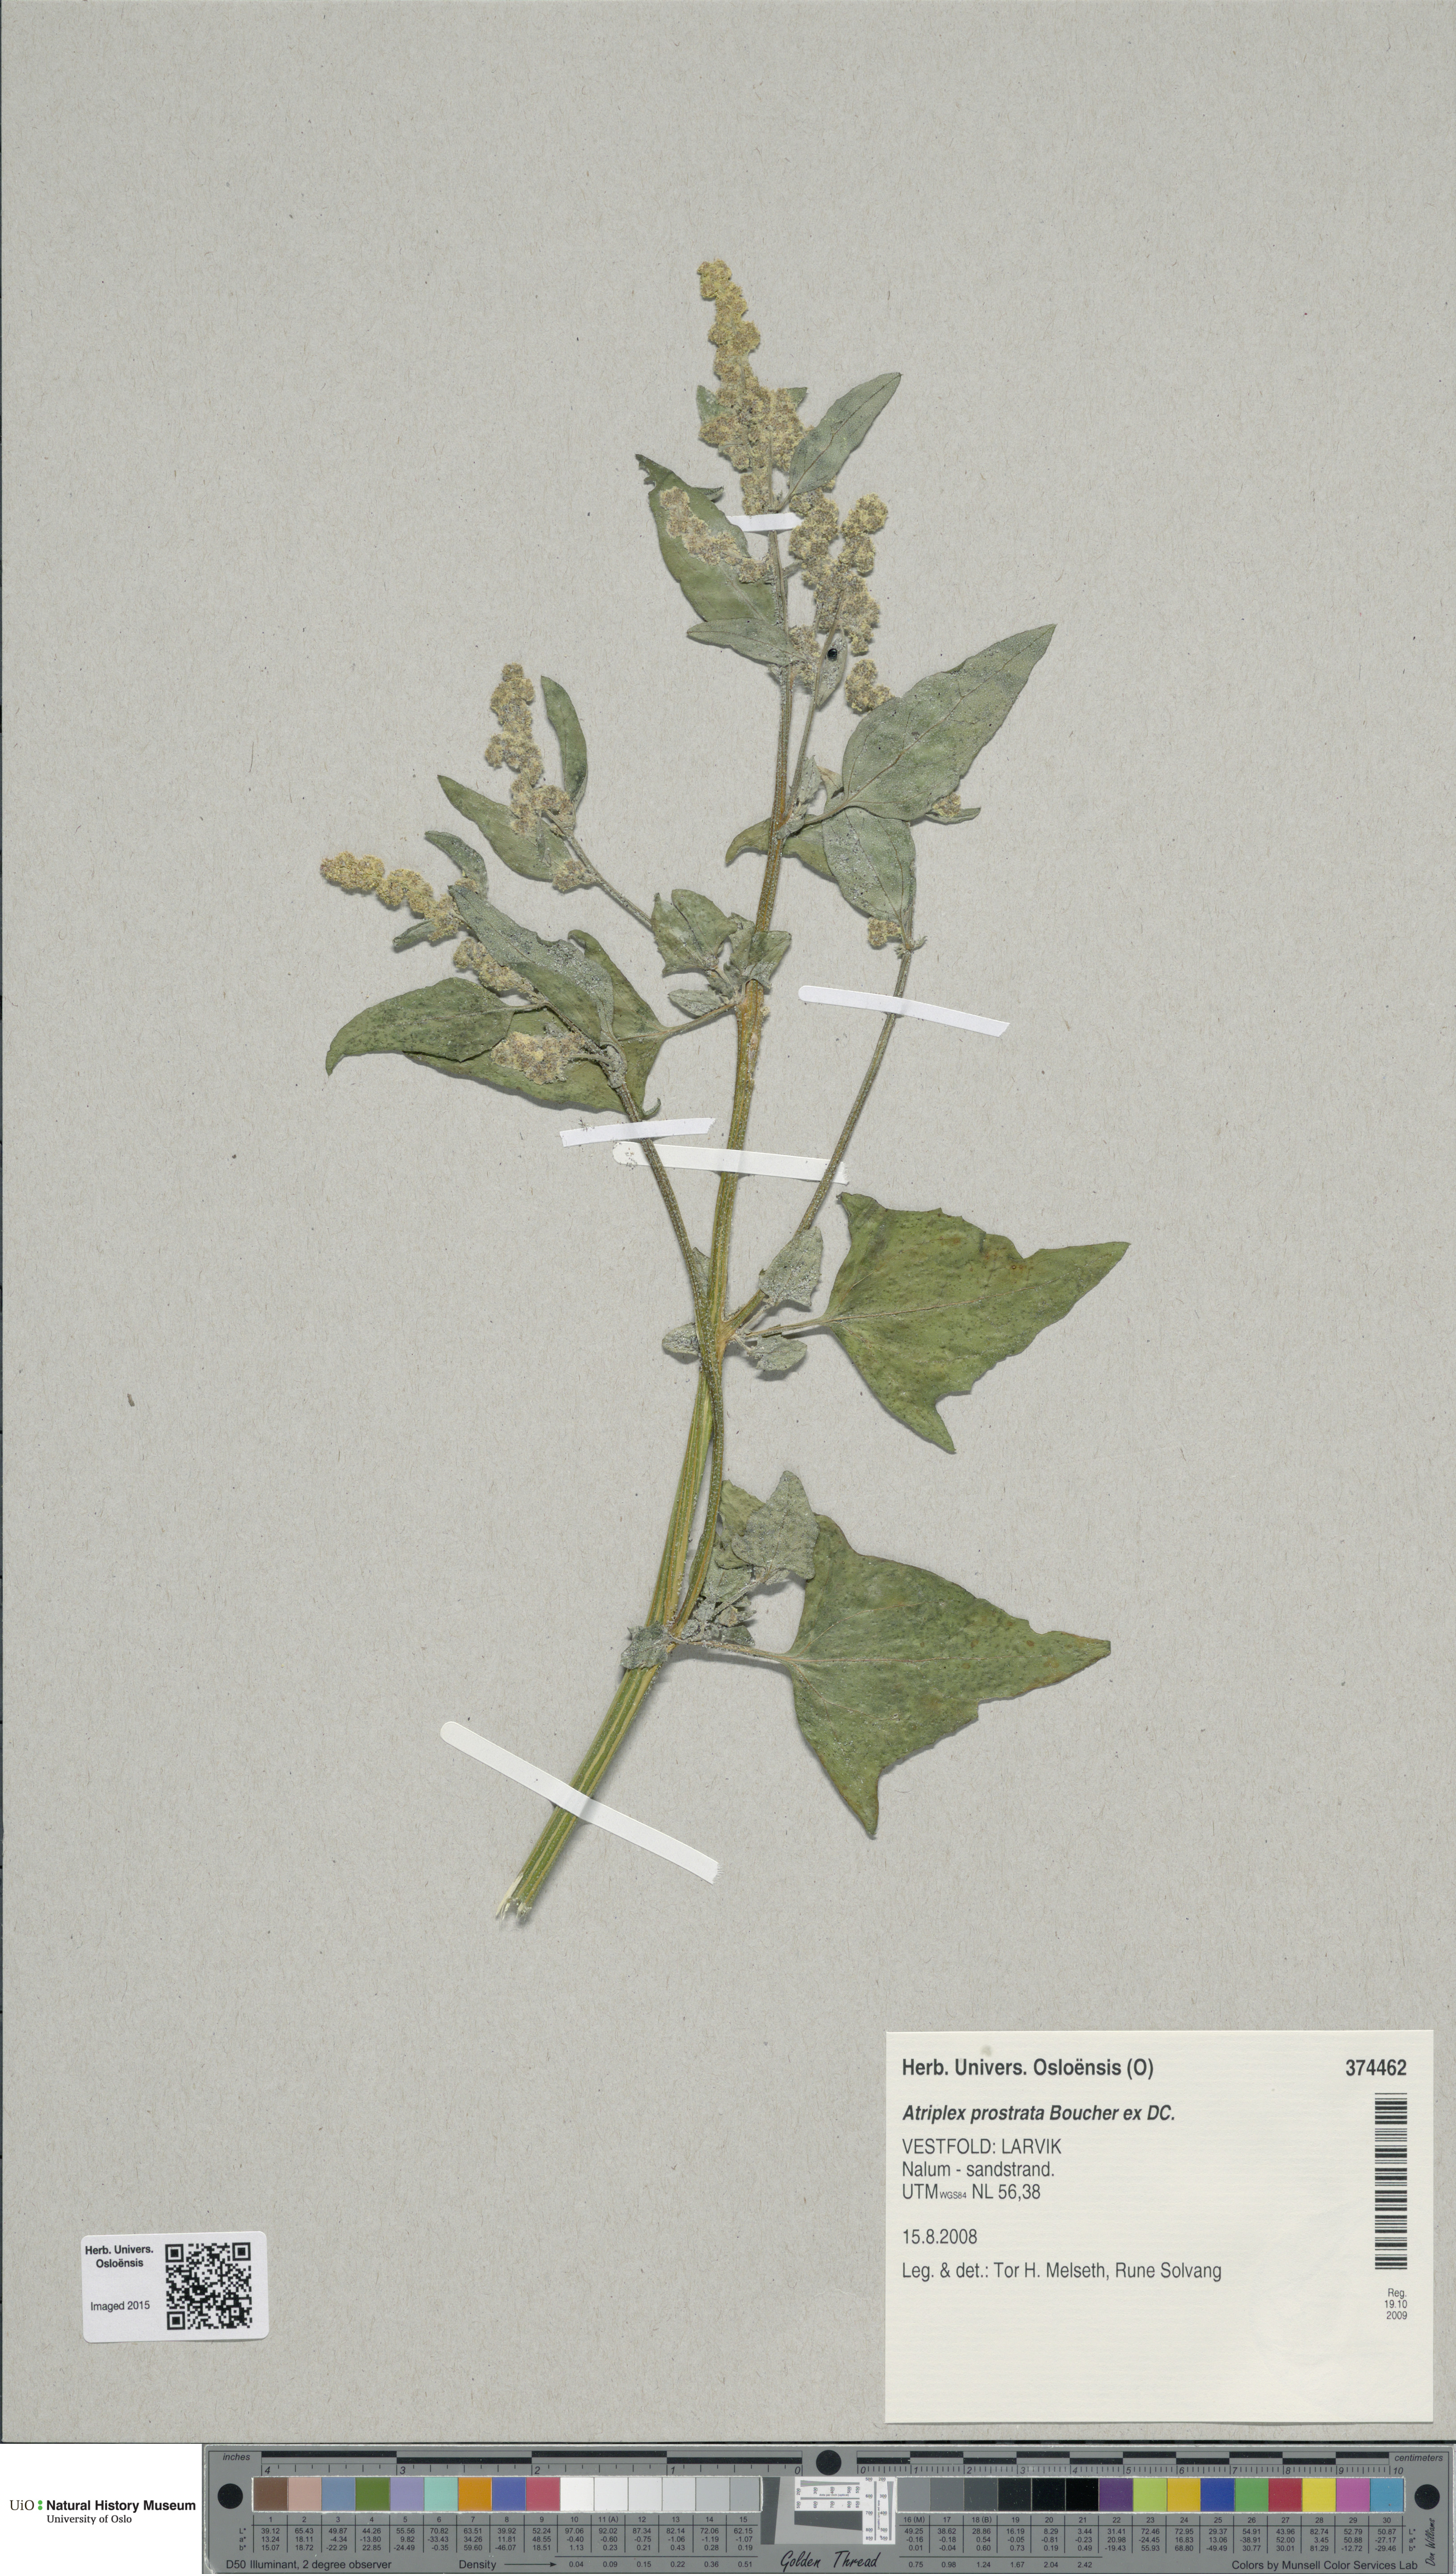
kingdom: Plantae
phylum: Tracheophyta
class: Magnoliopsida
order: Caryophyllales
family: Amaranthaceae
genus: Atriplex
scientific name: Atriplex prostrata
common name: Spear-leaved orache
